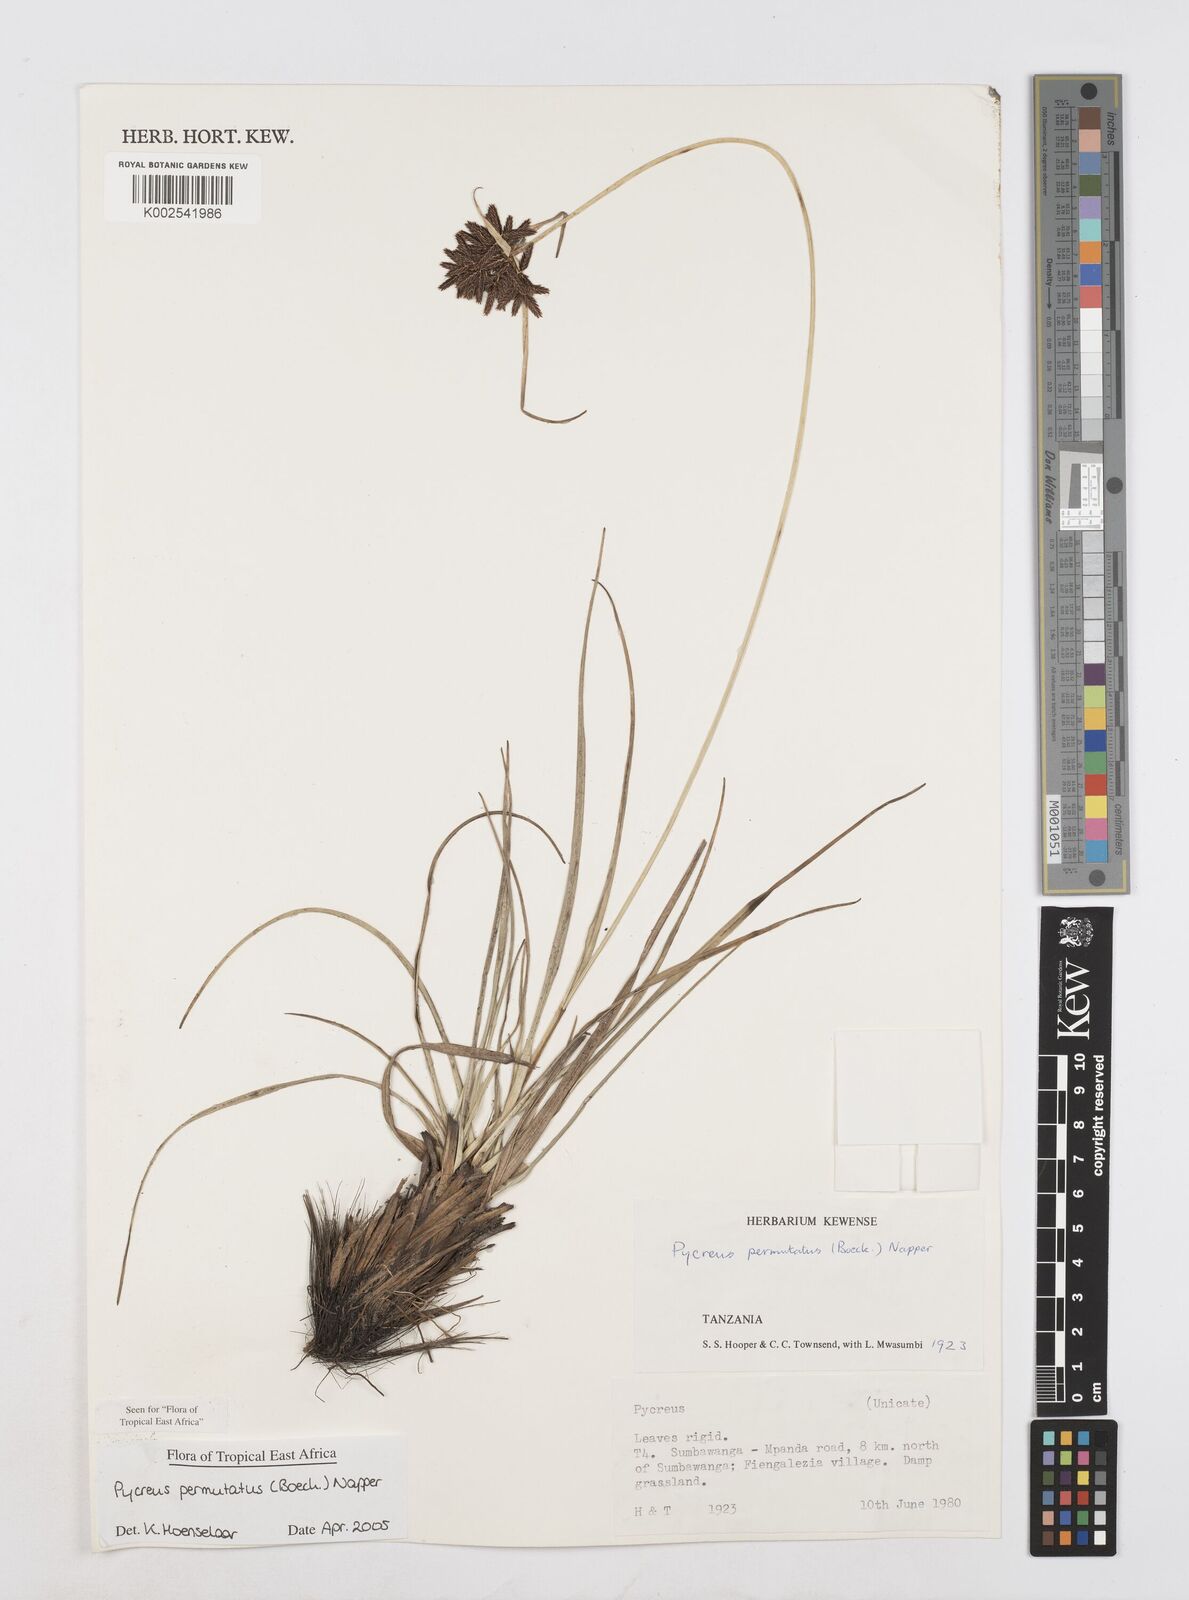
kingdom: Plantae
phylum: Tracheophyta
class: Liliopsida
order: Poales
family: Cyperaceae
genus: Cyperus
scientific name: Cyperus nigricans
